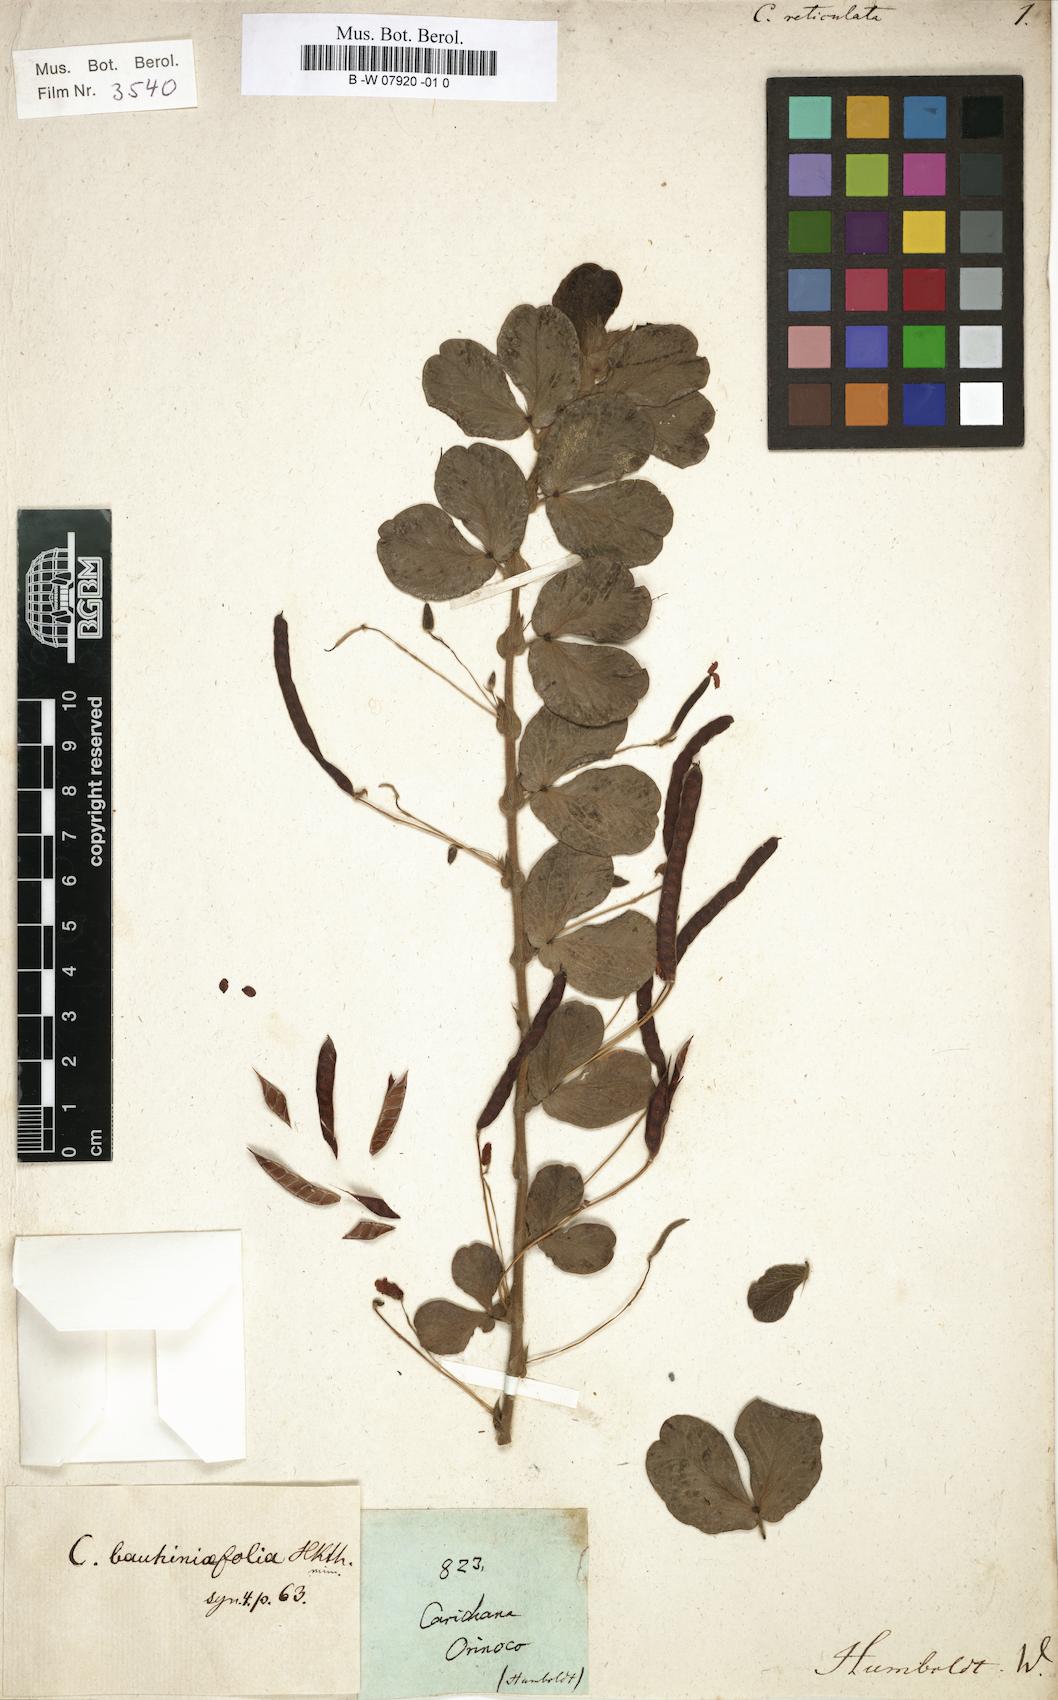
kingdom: Plantae
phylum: Tracheophyta
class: Magnoliopsida
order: Fabales
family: Fabaceae
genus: Senna
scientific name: Senna reticulata
